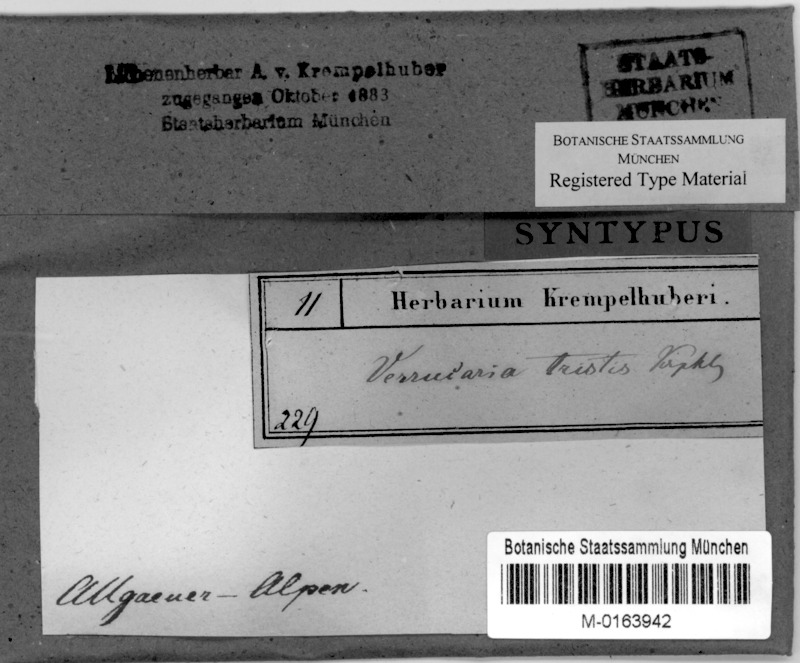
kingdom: Fungi
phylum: Ascomycota
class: Eurotiomycetes
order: Verrucariales
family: Verrucariaceae
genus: Verrucaria
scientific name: Verrucaria Lithocia tristis
